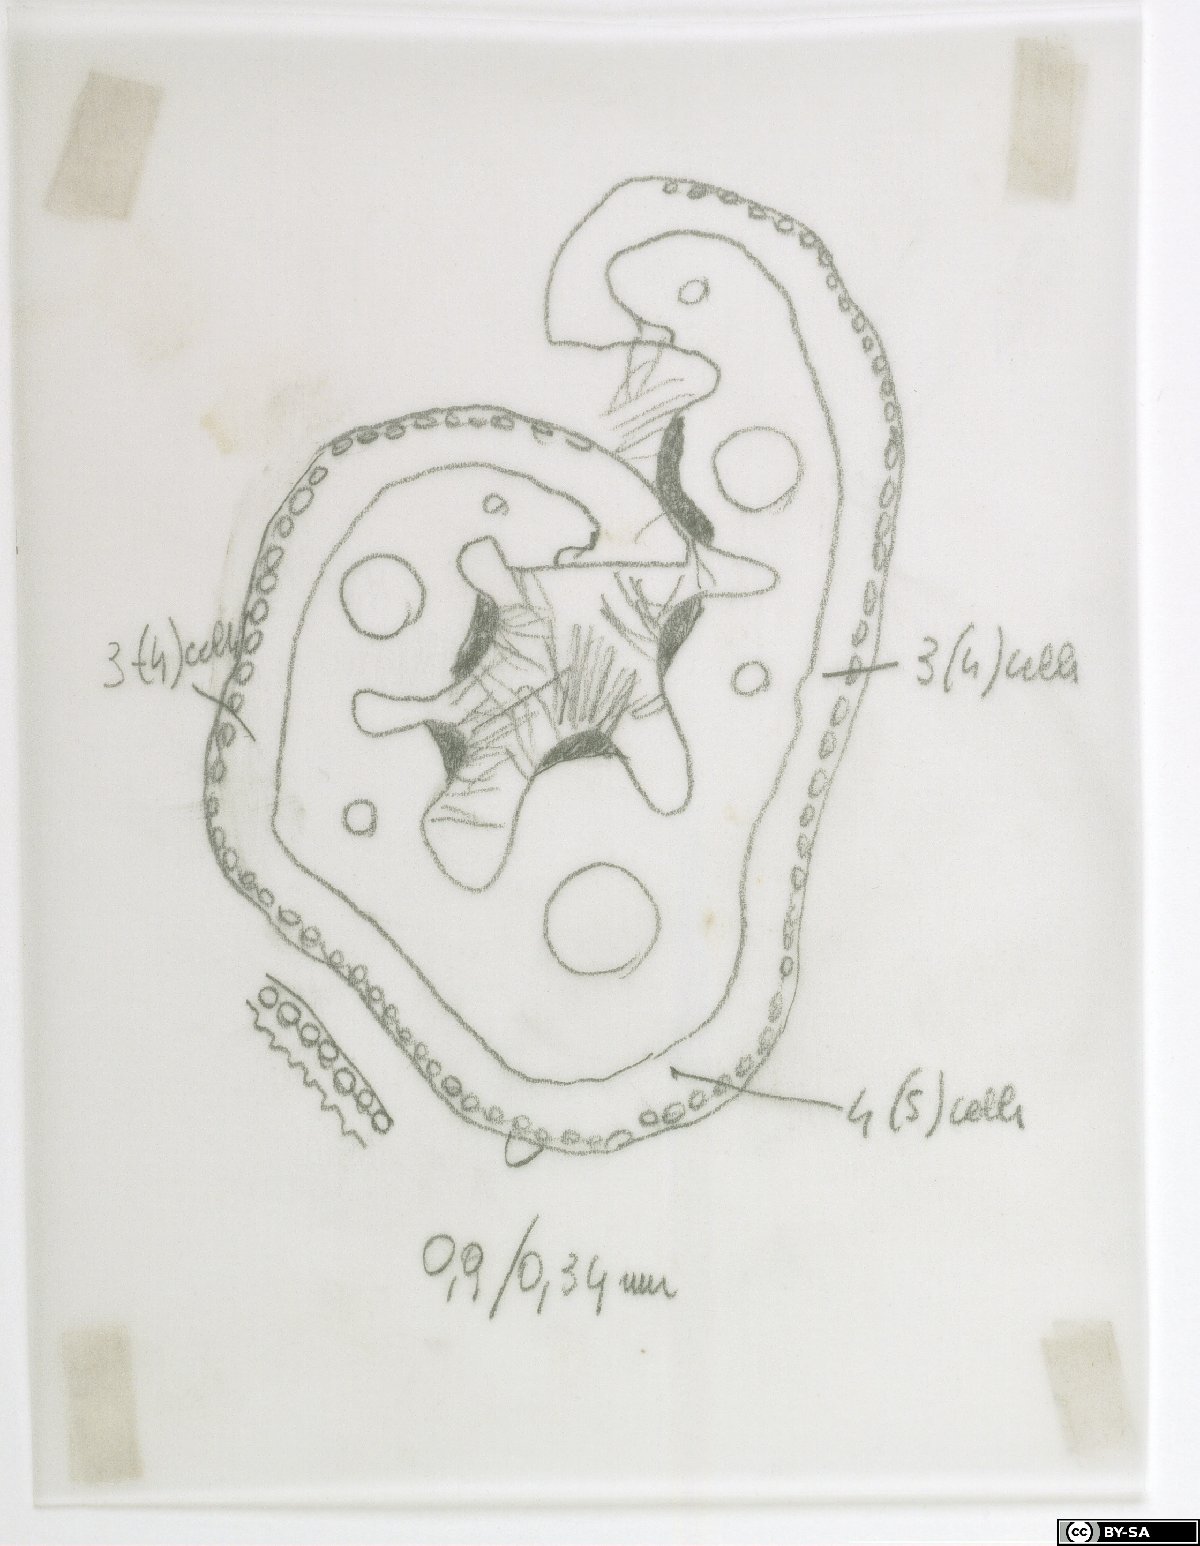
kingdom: Plantae
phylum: Tracheophyta
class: Liliopsida
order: Poales
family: Poaceae
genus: Festuca
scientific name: Festuca stricta
